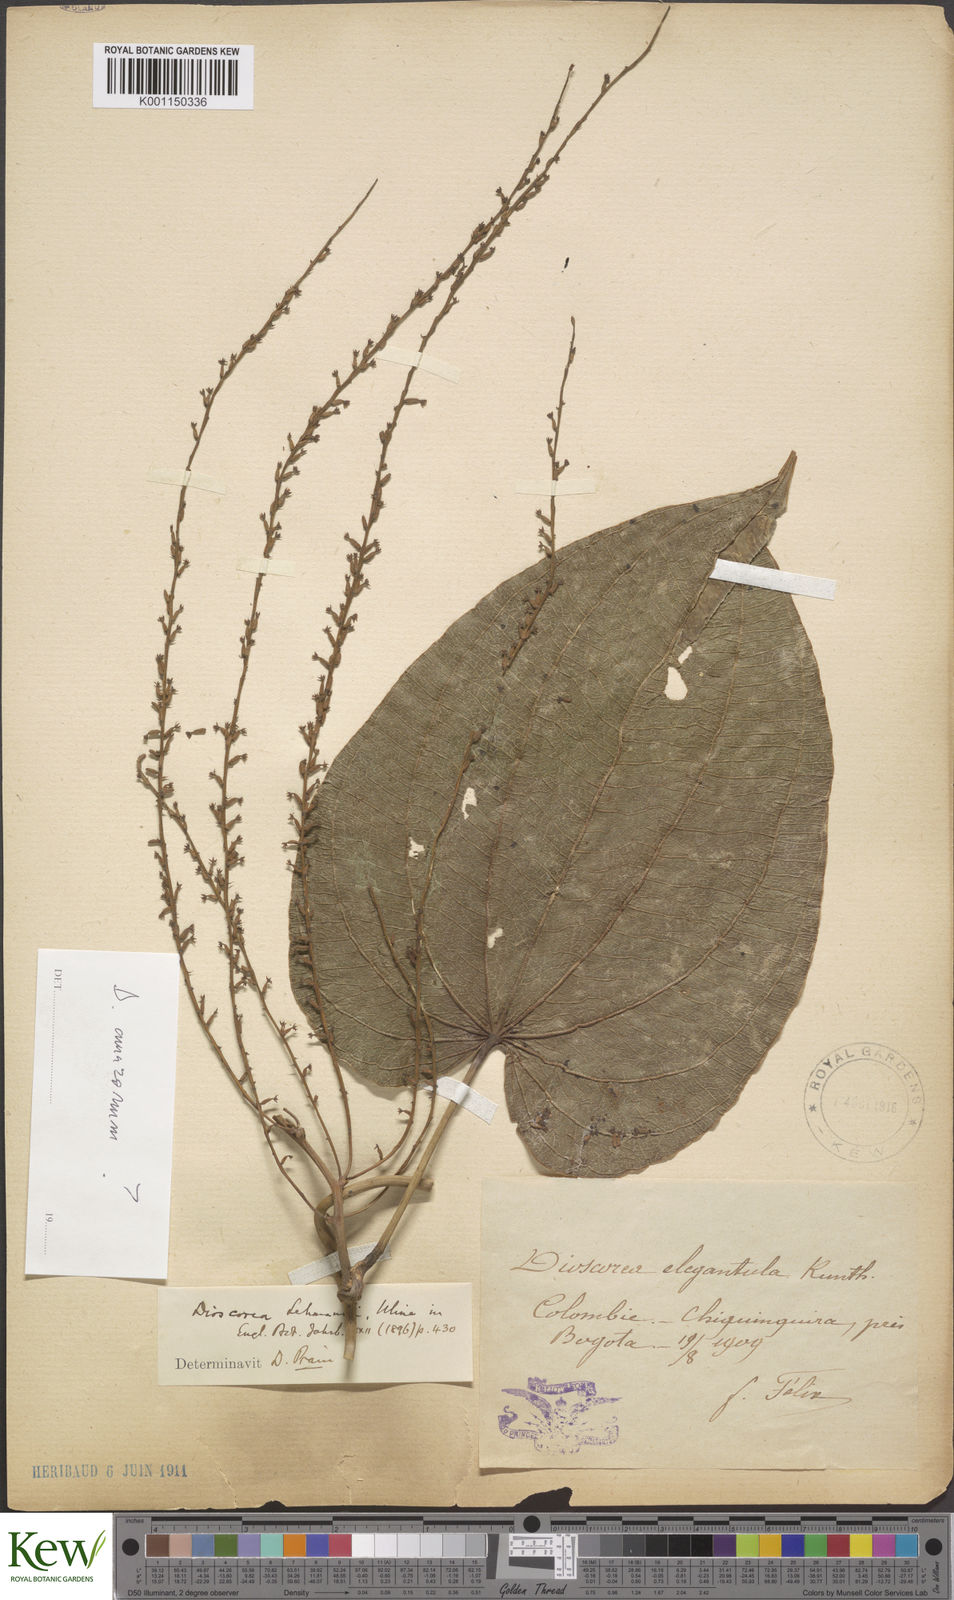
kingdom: Plantae
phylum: Tracheophyta
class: Liliopsida
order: Dioscoreales
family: Dioscoreaceae
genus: Dioscorea
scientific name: Dioscorea lehmannii
